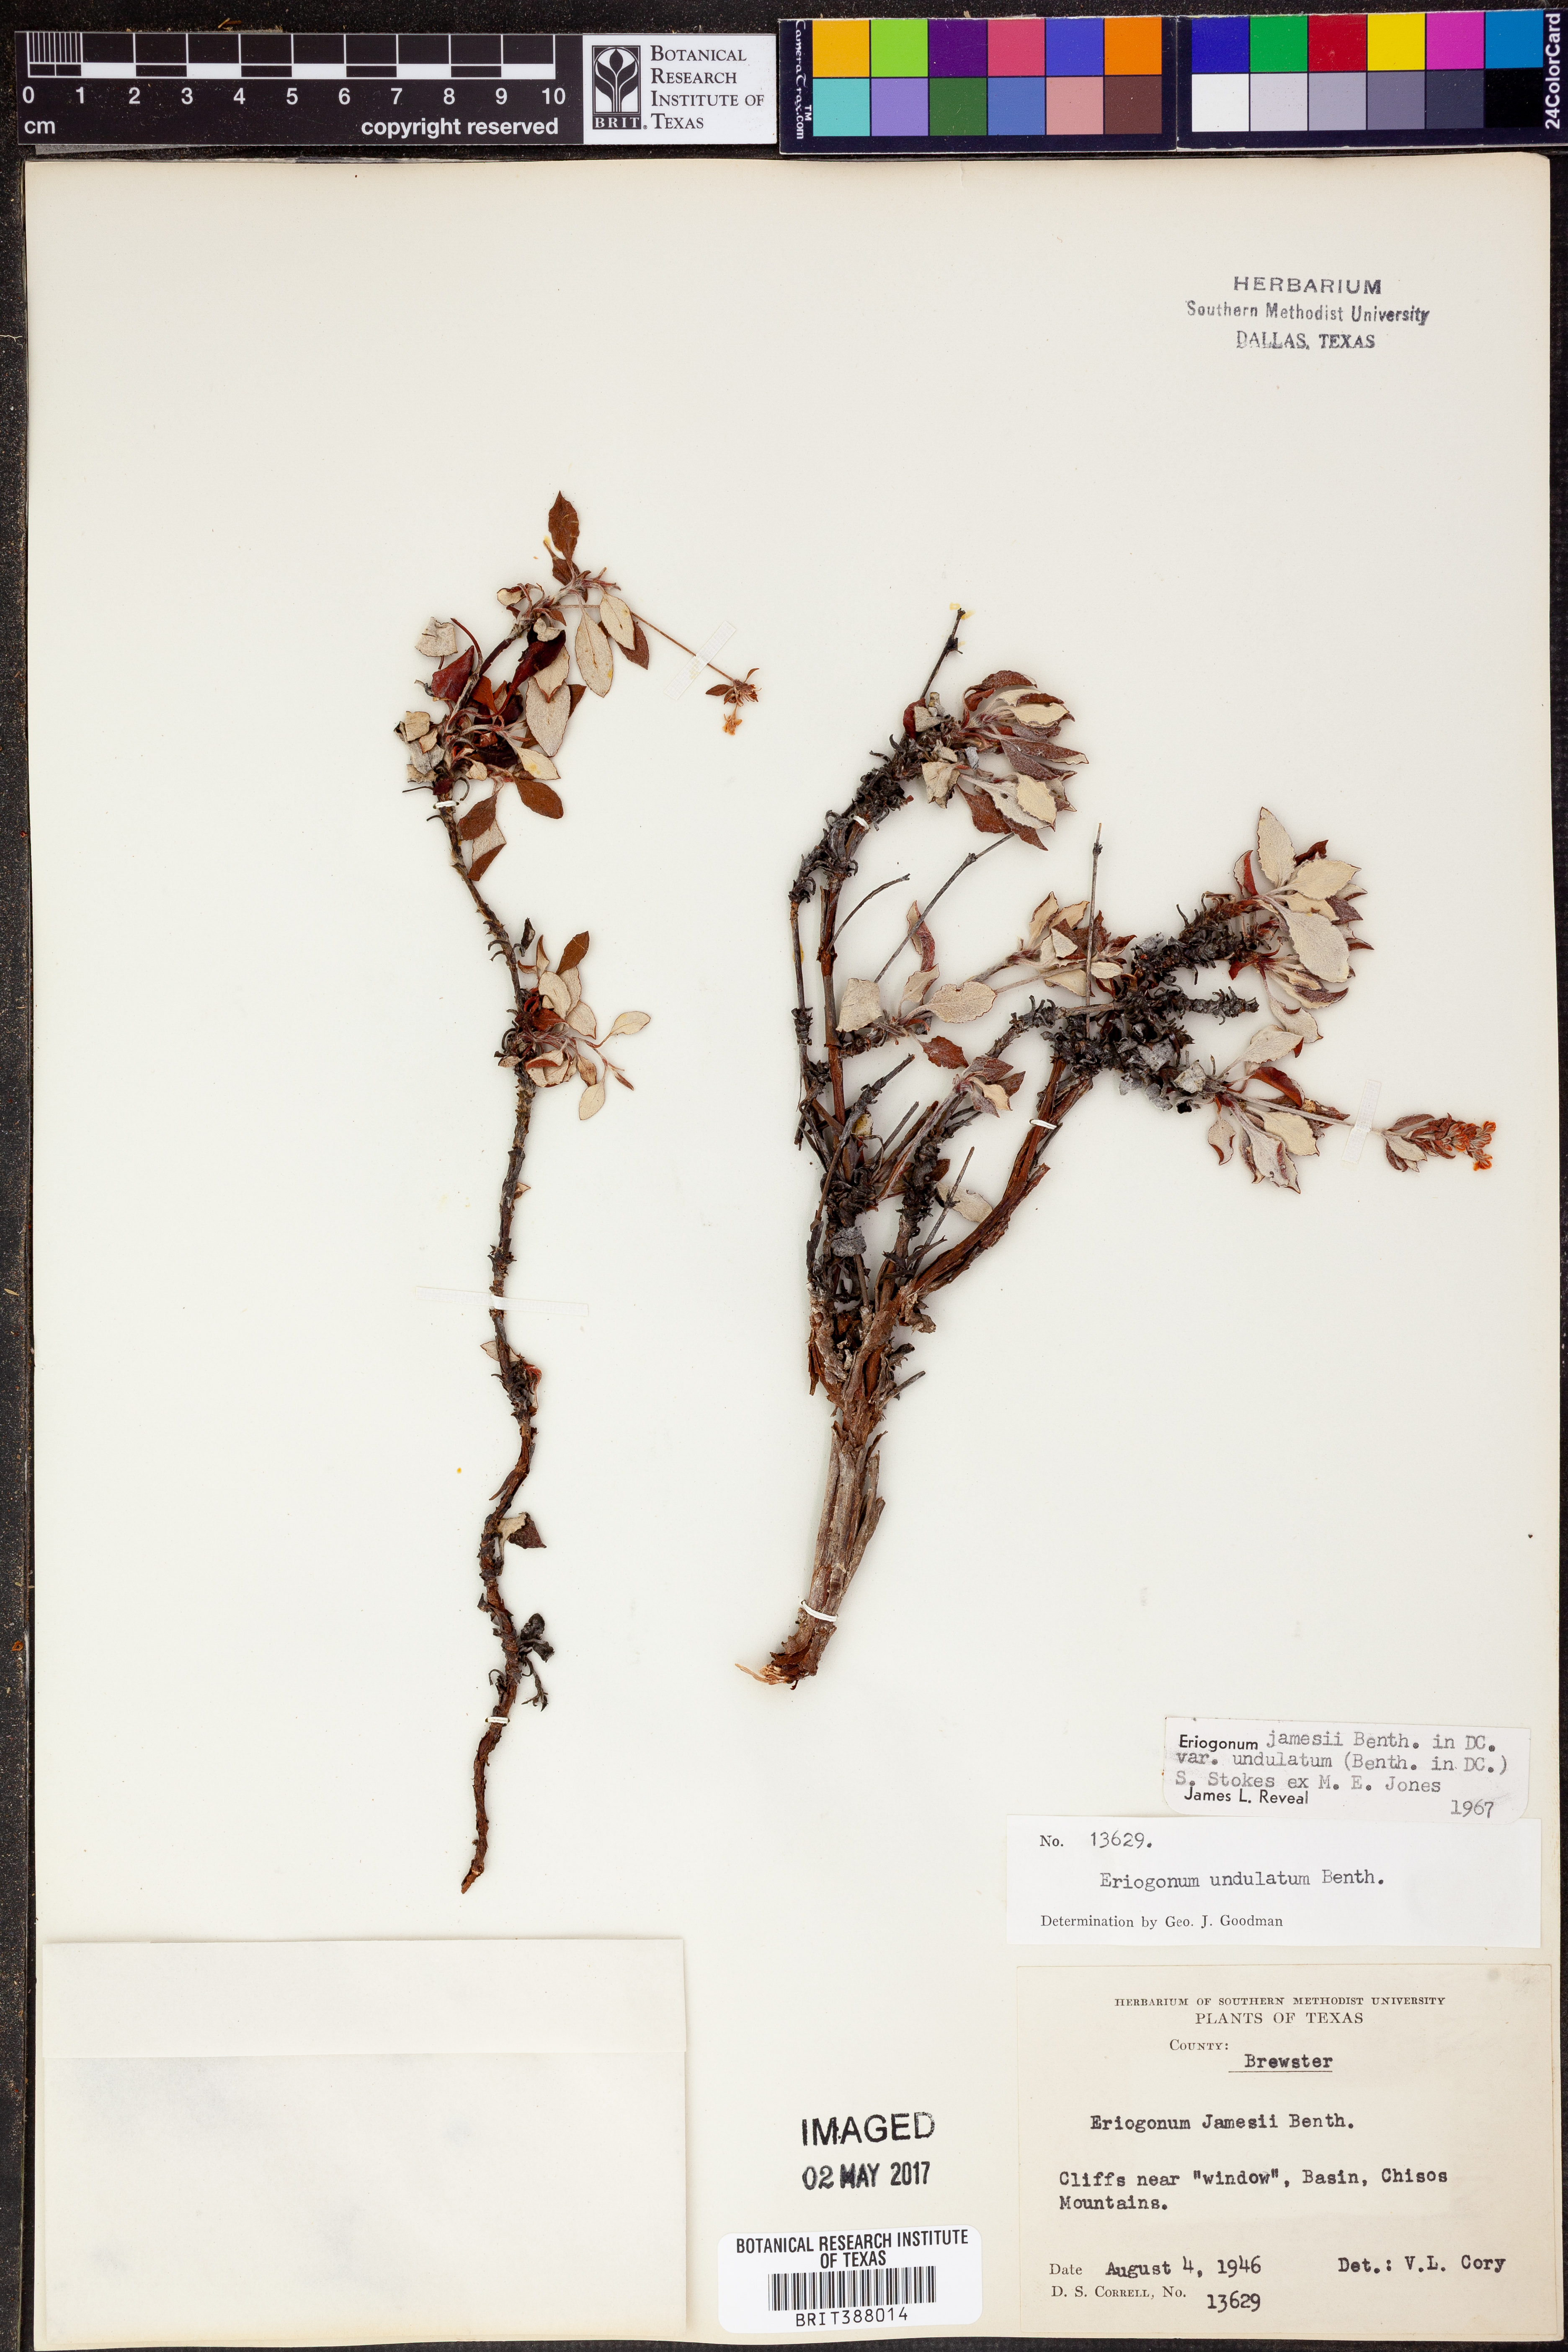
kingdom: Plantae
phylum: Tracheophyta
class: Magnoliopsida
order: Caryophyllales
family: Polygonaceae
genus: Eriogonum
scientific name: Eriogonum jamesii
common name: Antelope-sage
